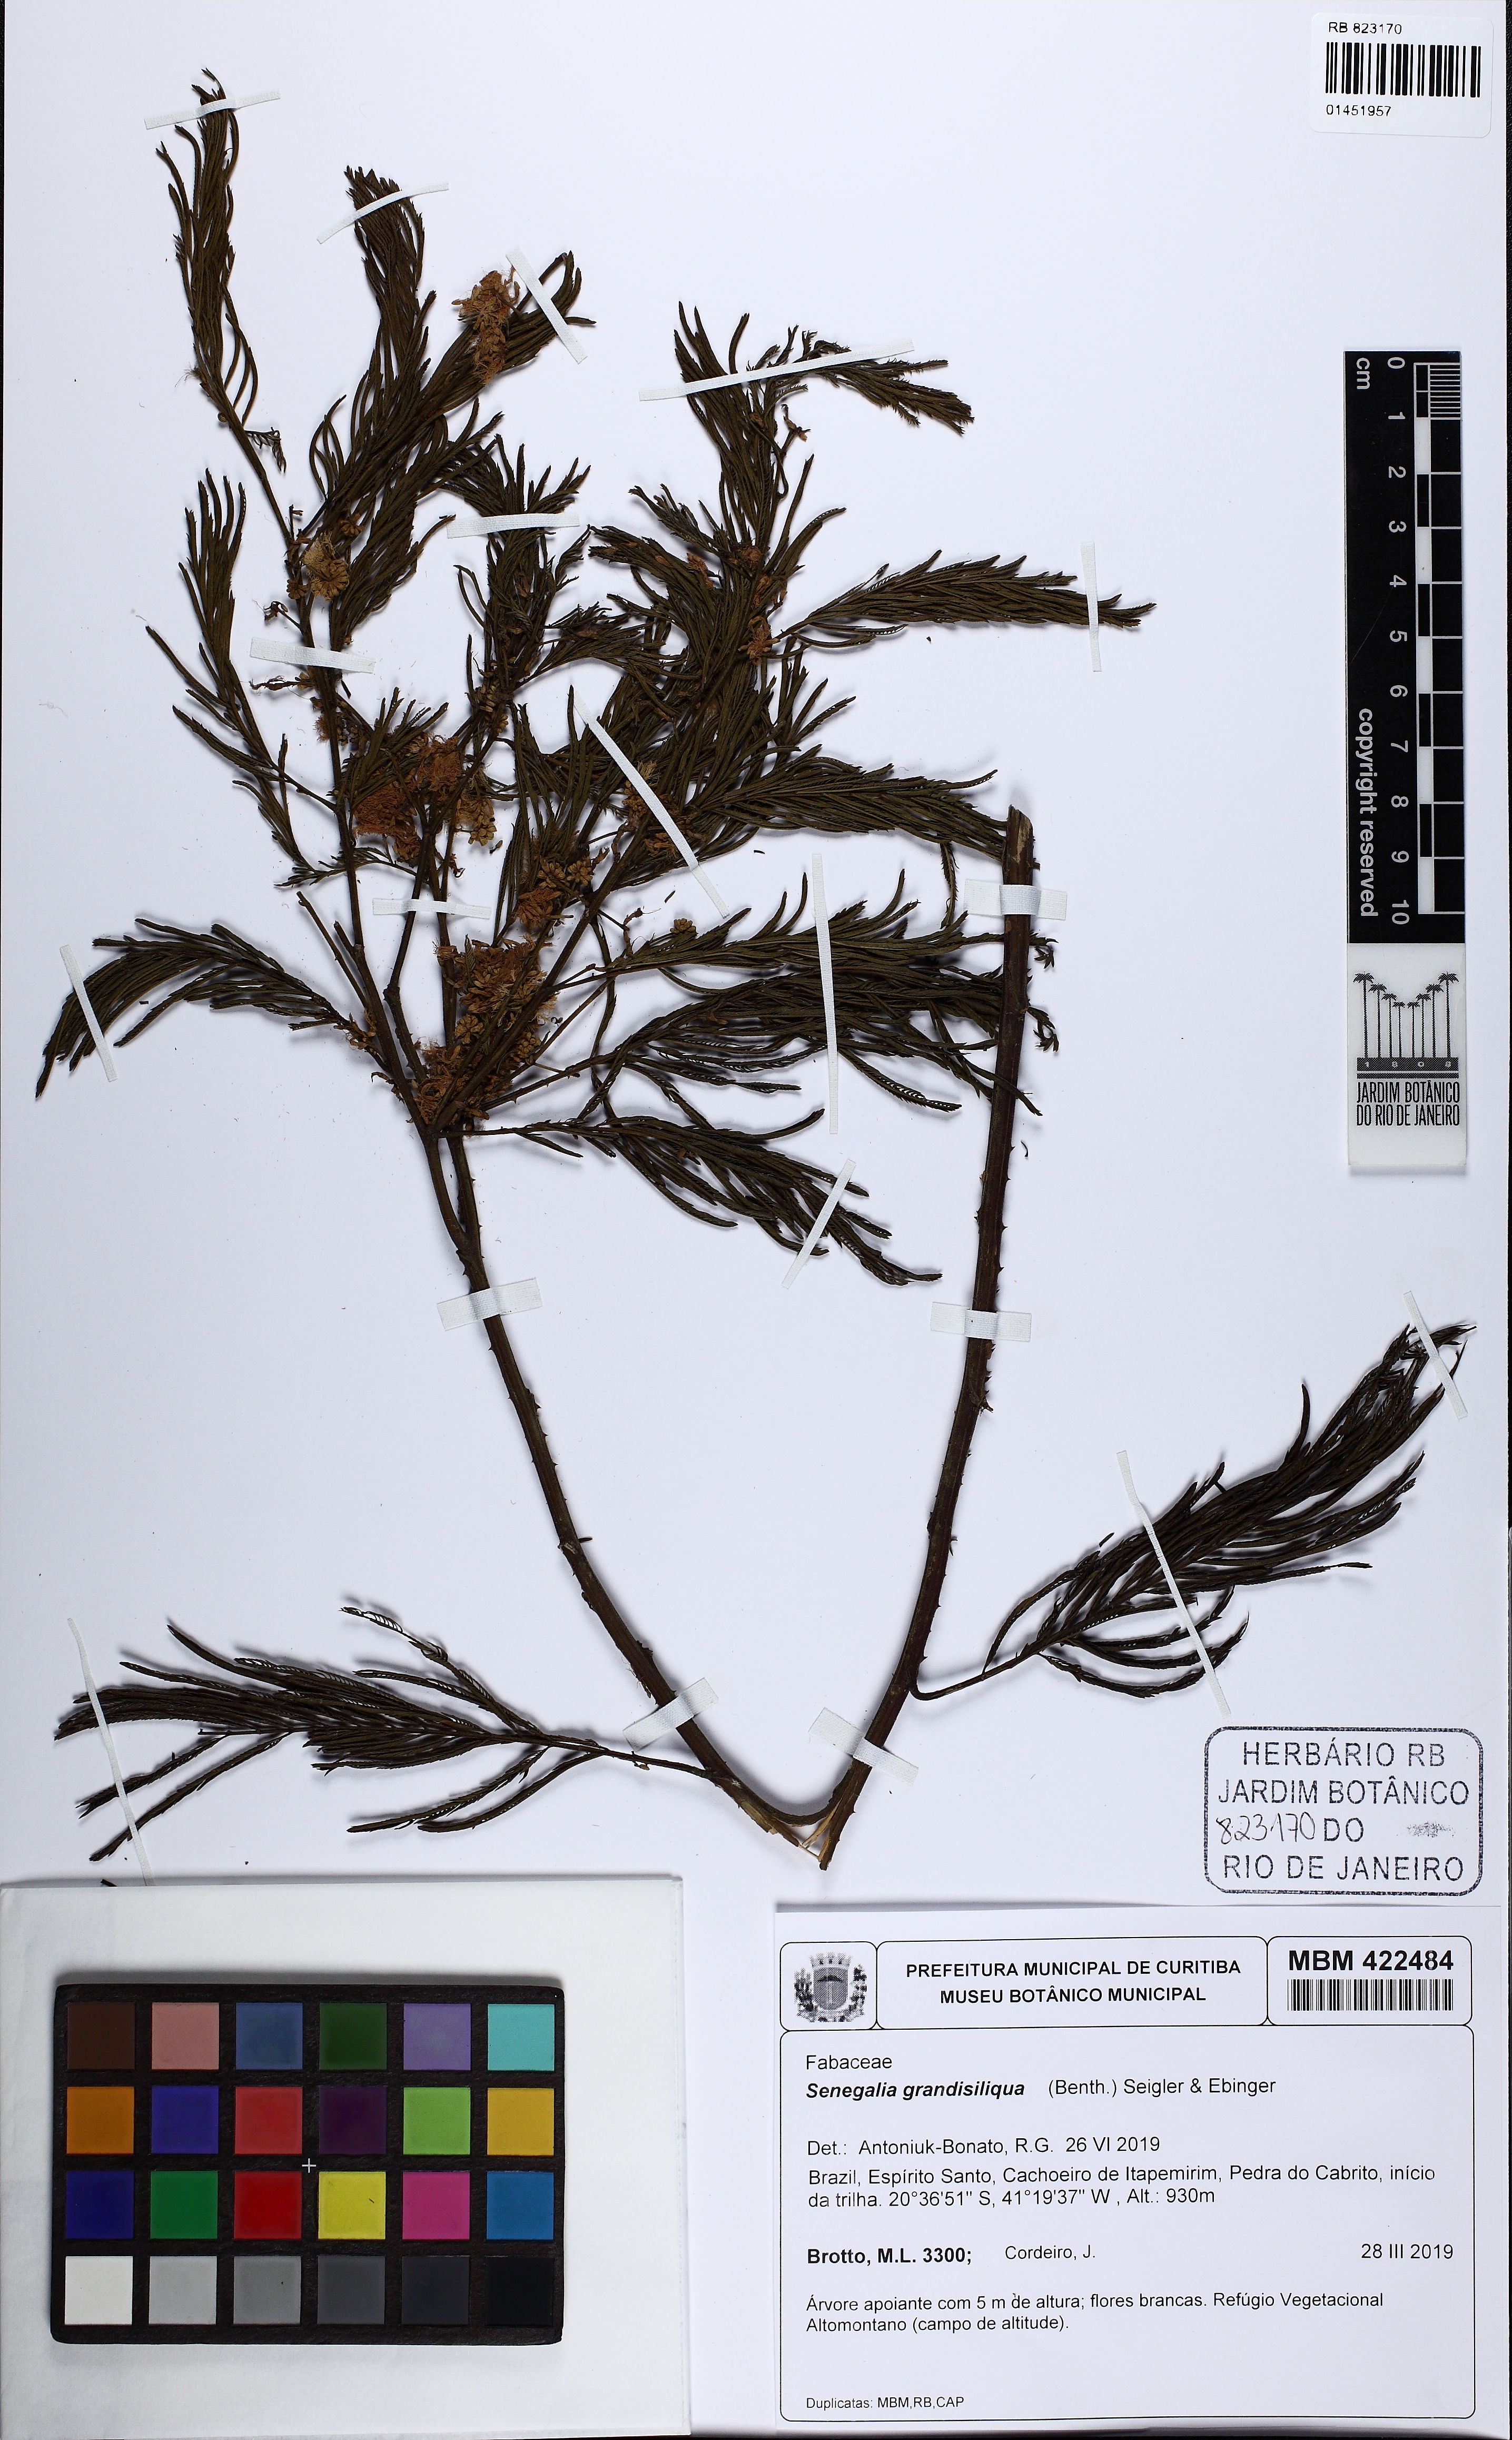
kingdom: Plantae
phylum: Tracheophyta
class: Magnoliopsida
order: Fabales
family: Fabaceae
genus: Senegalia
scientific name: Senegalia grandisiliqua
